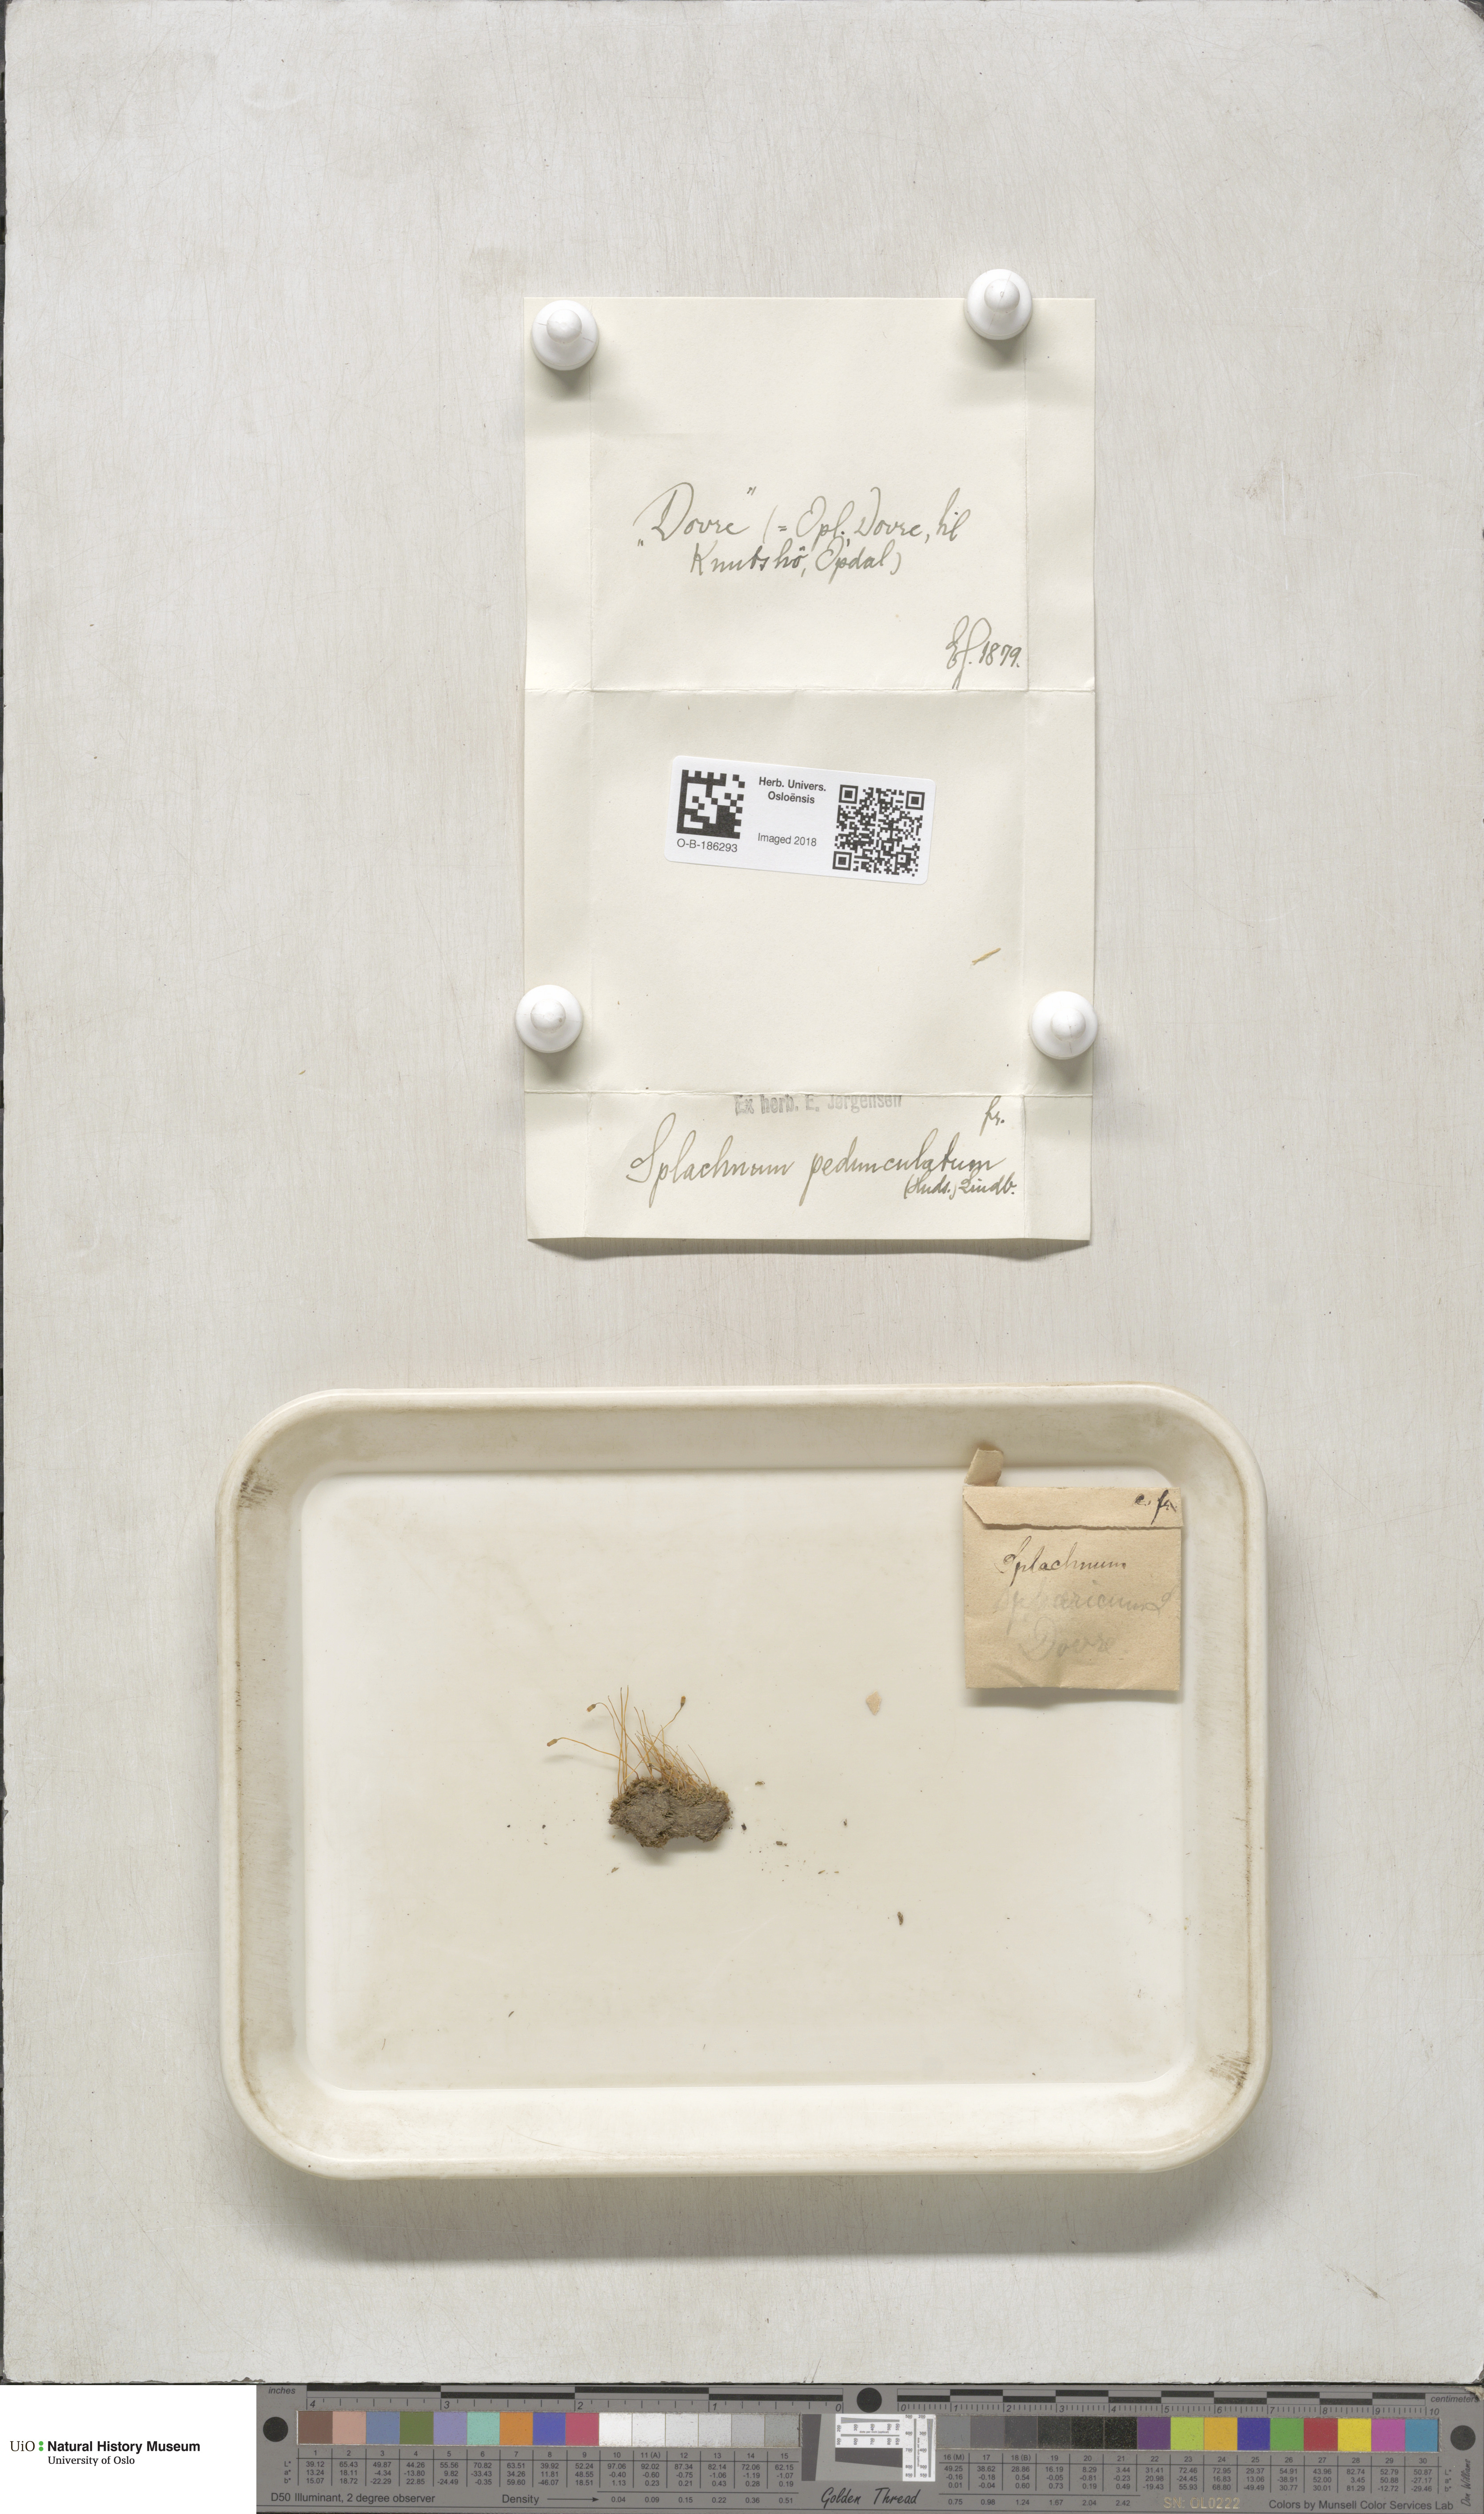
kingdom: Plantae
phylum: Bryophyta
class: Bryopsida
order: Splachnales
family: Splachnaceae
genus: Splachnum
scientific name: Splachnum sphaericum
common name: Round-fruited dung moss
